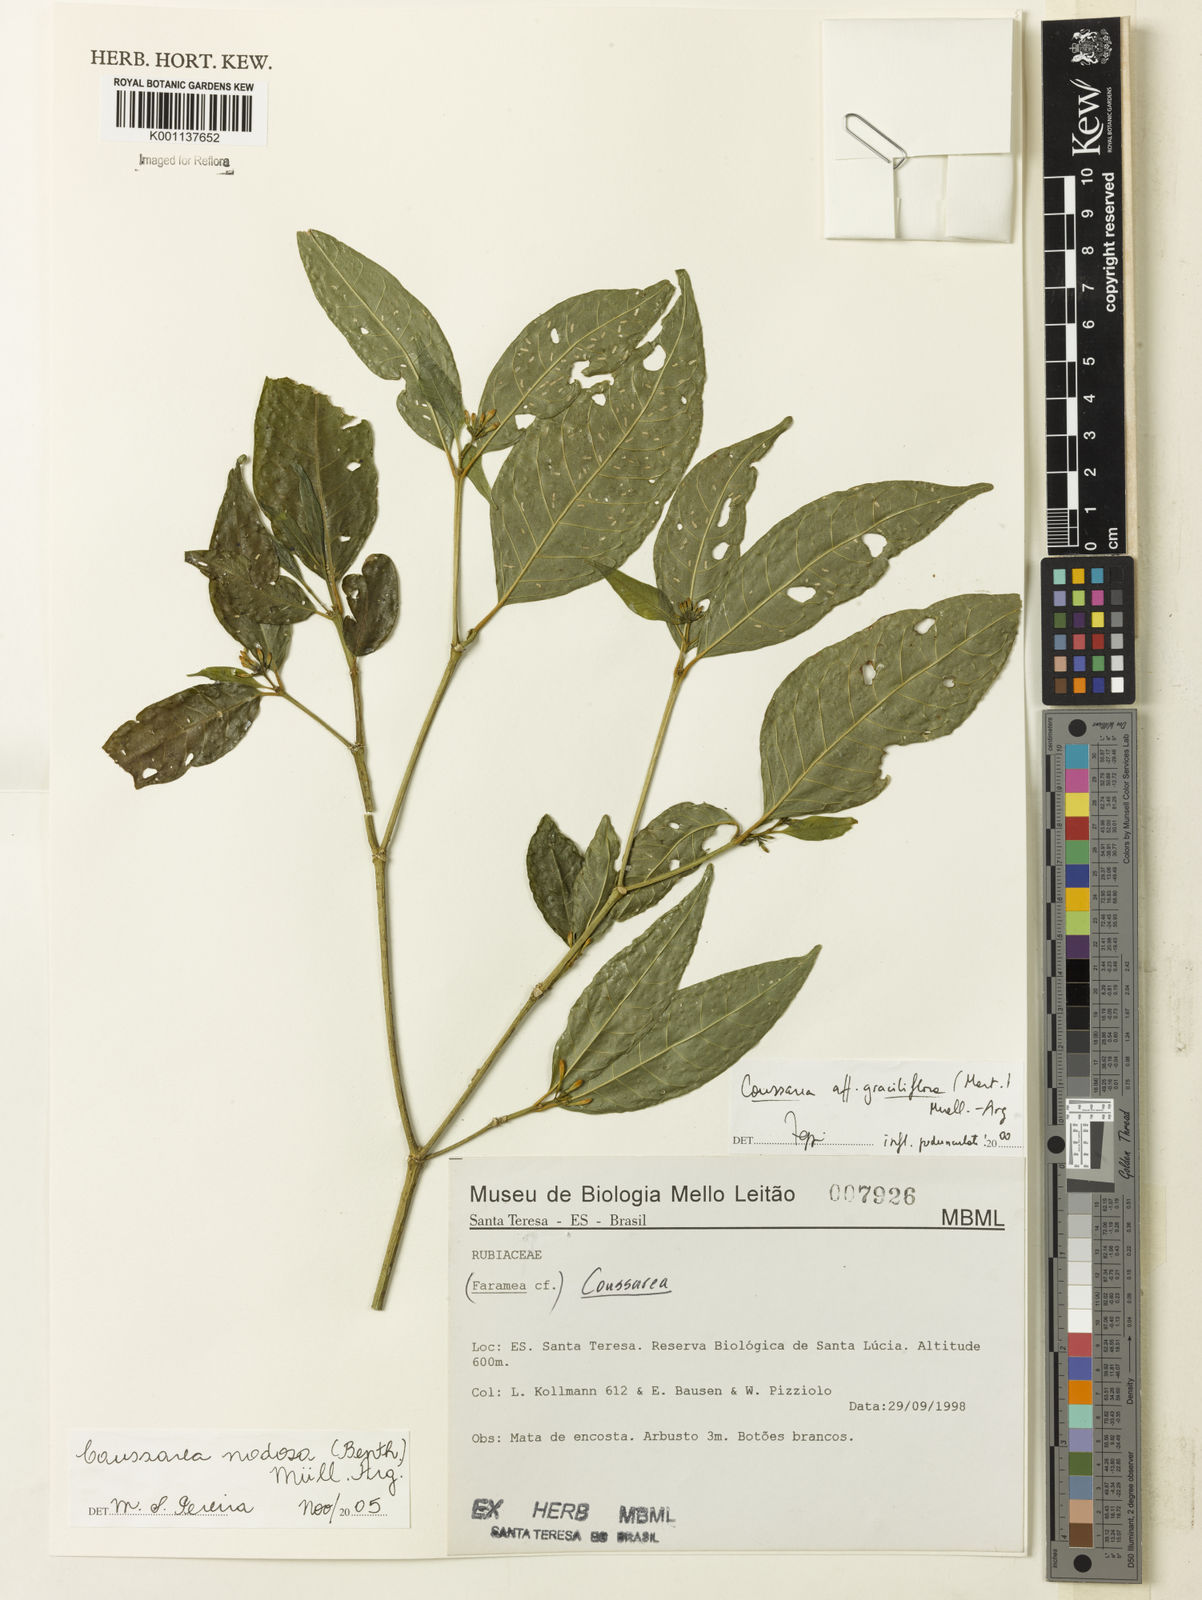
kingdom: Plantae
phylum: Tracheophyta
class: Magnoliopsida
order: Gentianales
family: Rubiaceae
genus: Coussarea
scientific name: Coussarea
